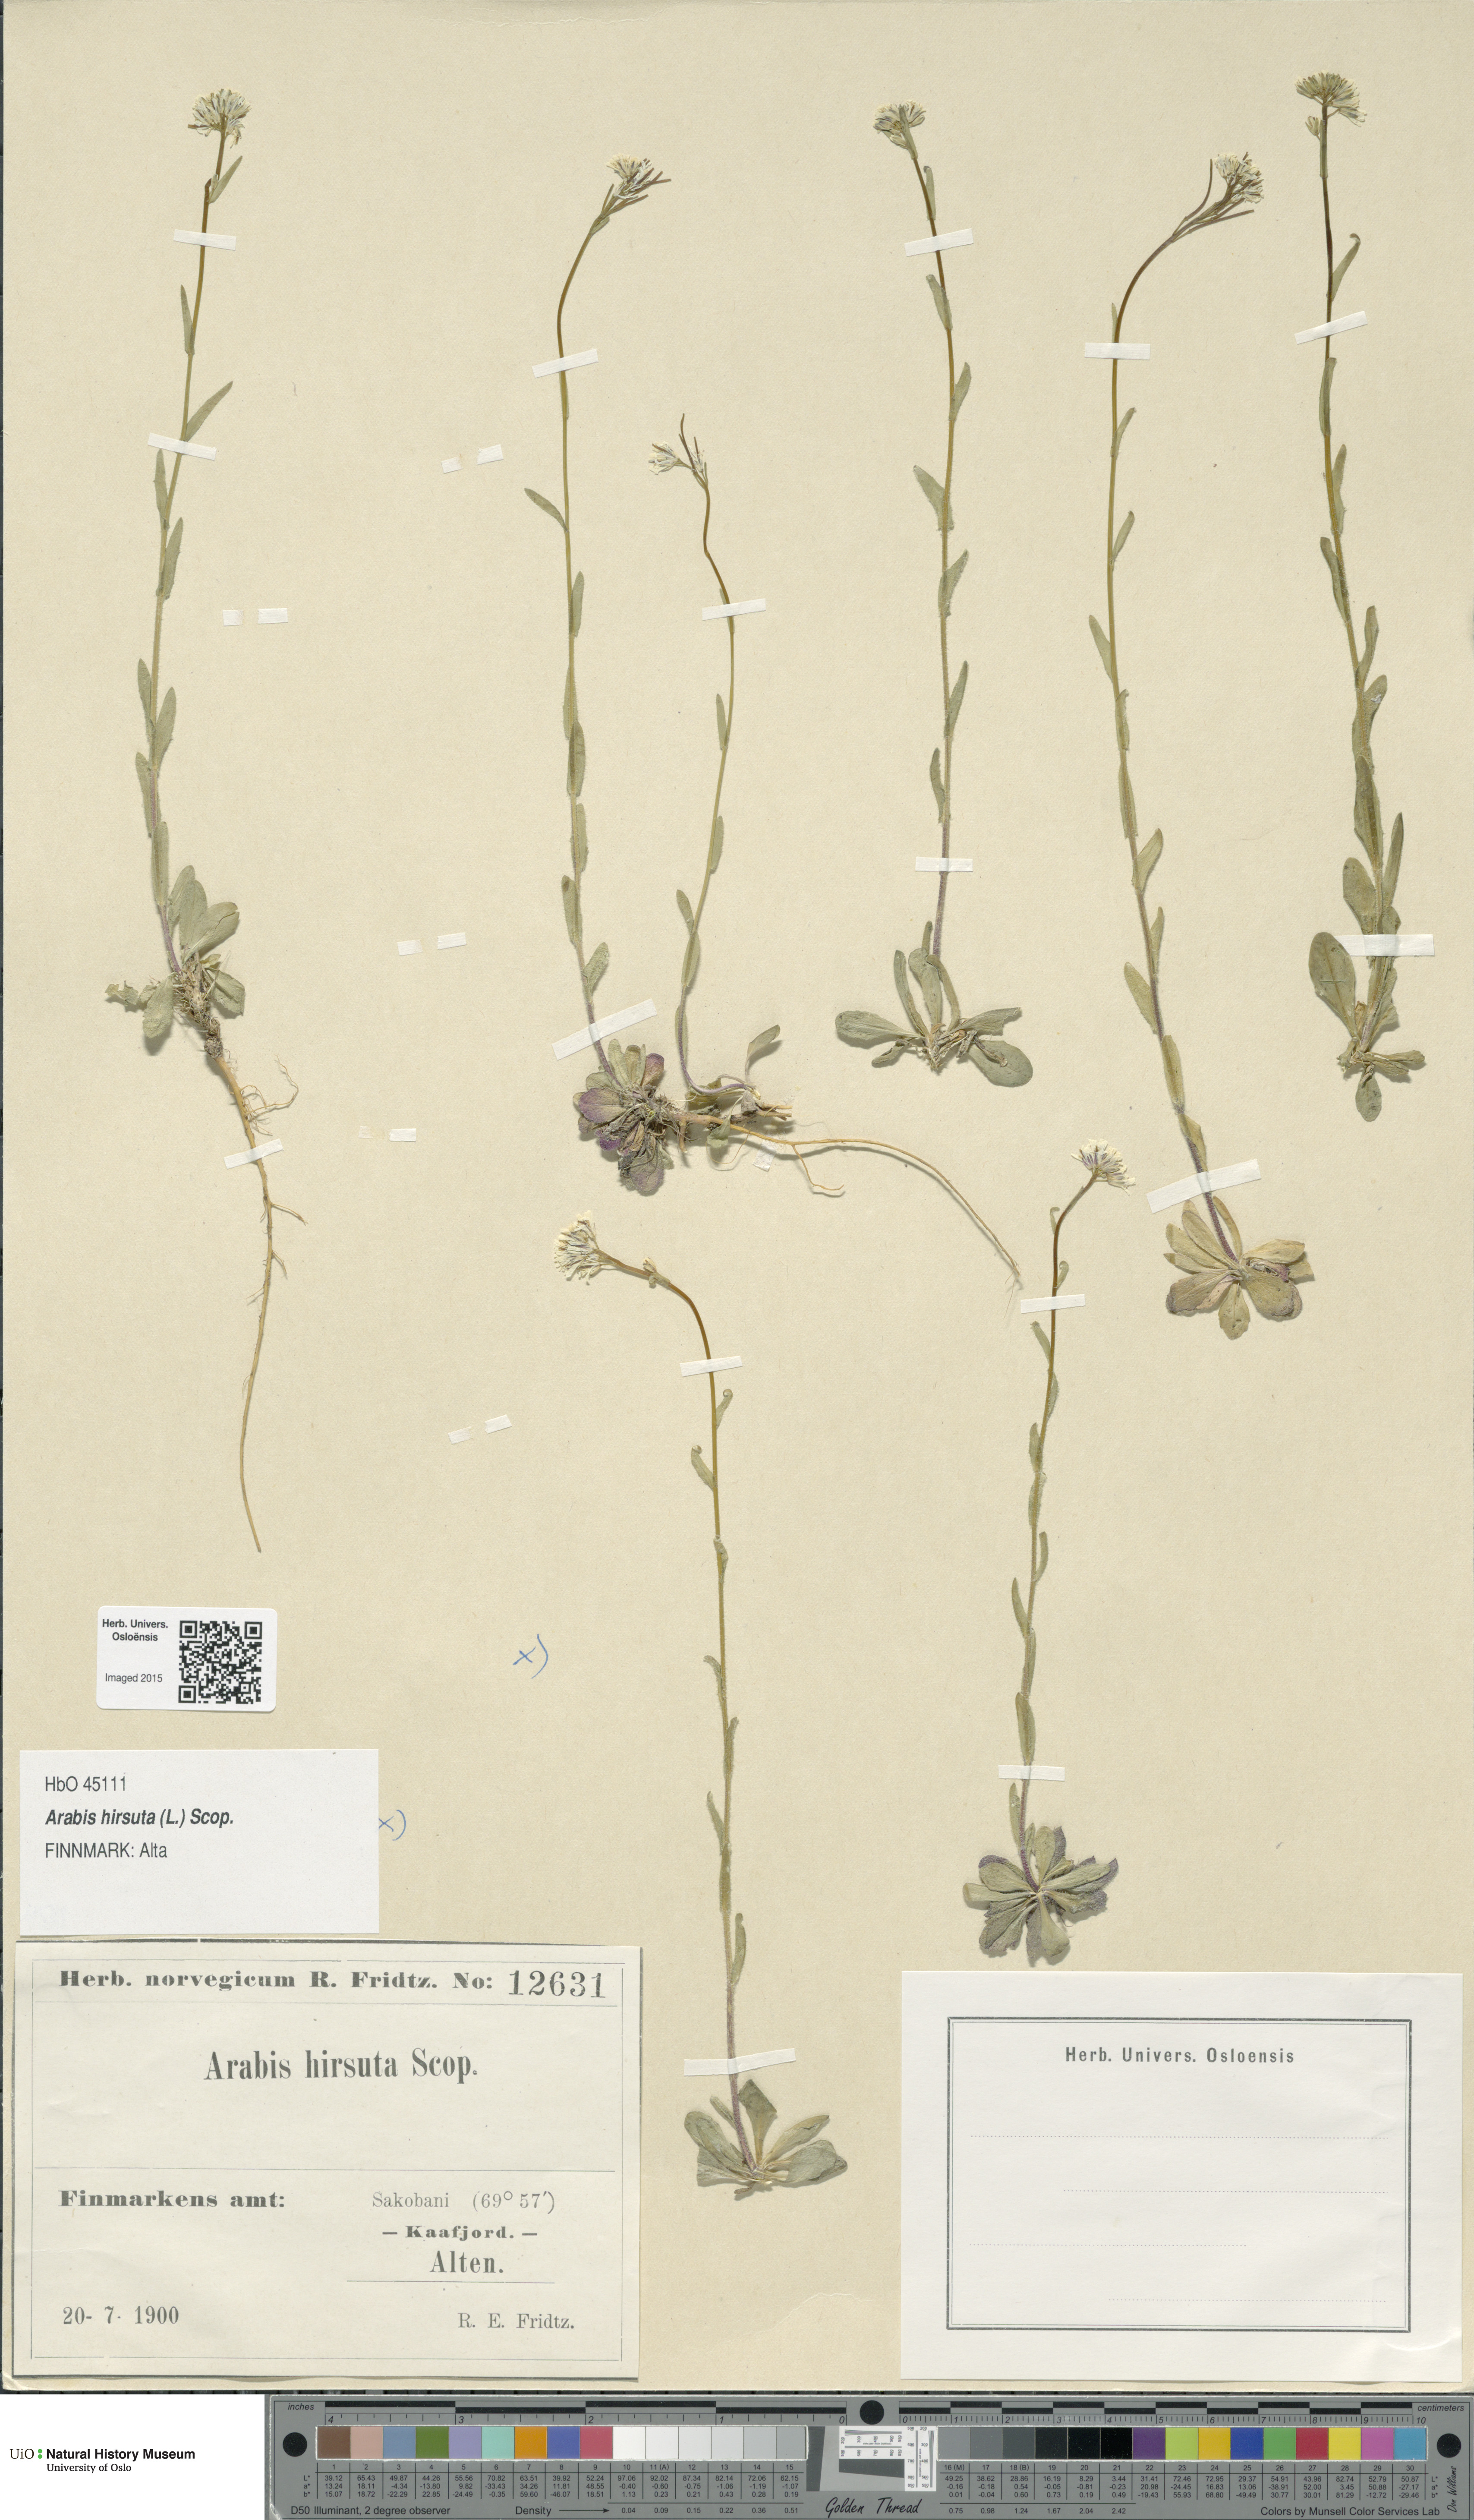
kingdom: Plantae
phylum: Tracheophyta
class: Magnoliopsida
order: Brassicales
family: Brassicaceae
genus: Arabis
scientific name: Arabis hirsuta
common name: Hairy rock-cress
